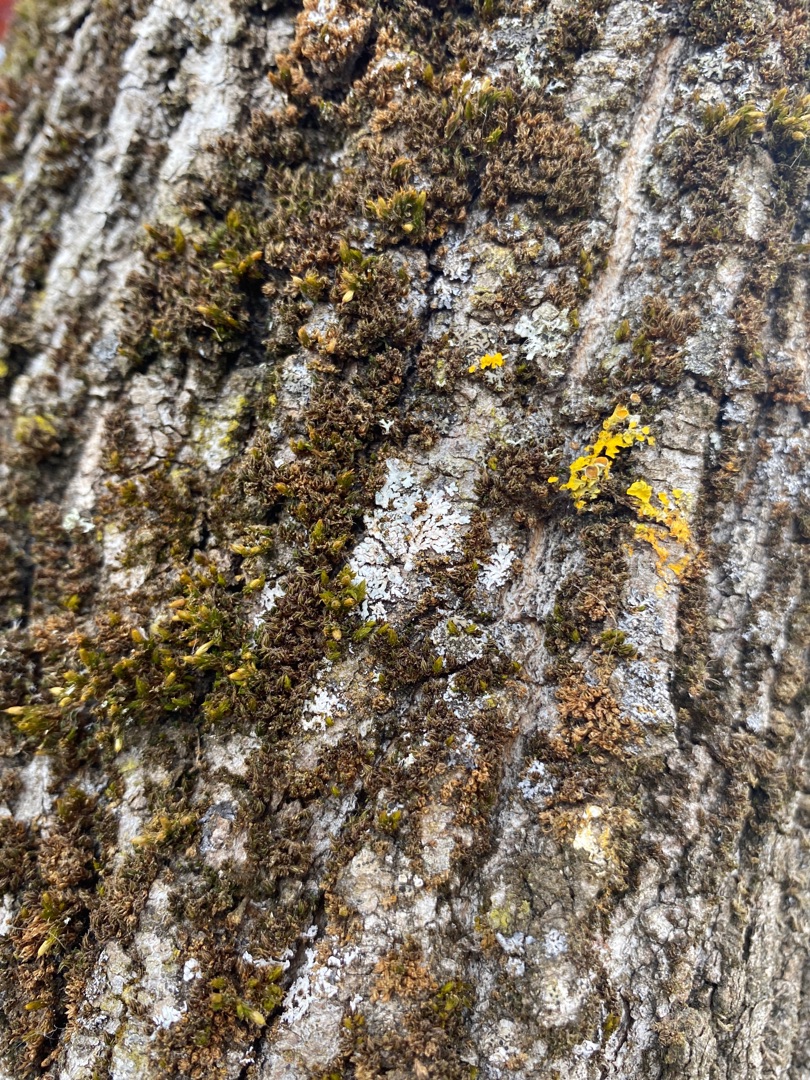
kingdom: Fungi
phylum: Ascomycota
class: Lecanoromycetes
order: Teloschistales
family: Teloschistaceae
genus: Xanthoria
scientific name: Xanthoria parietina
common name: Almindelig væggelav
